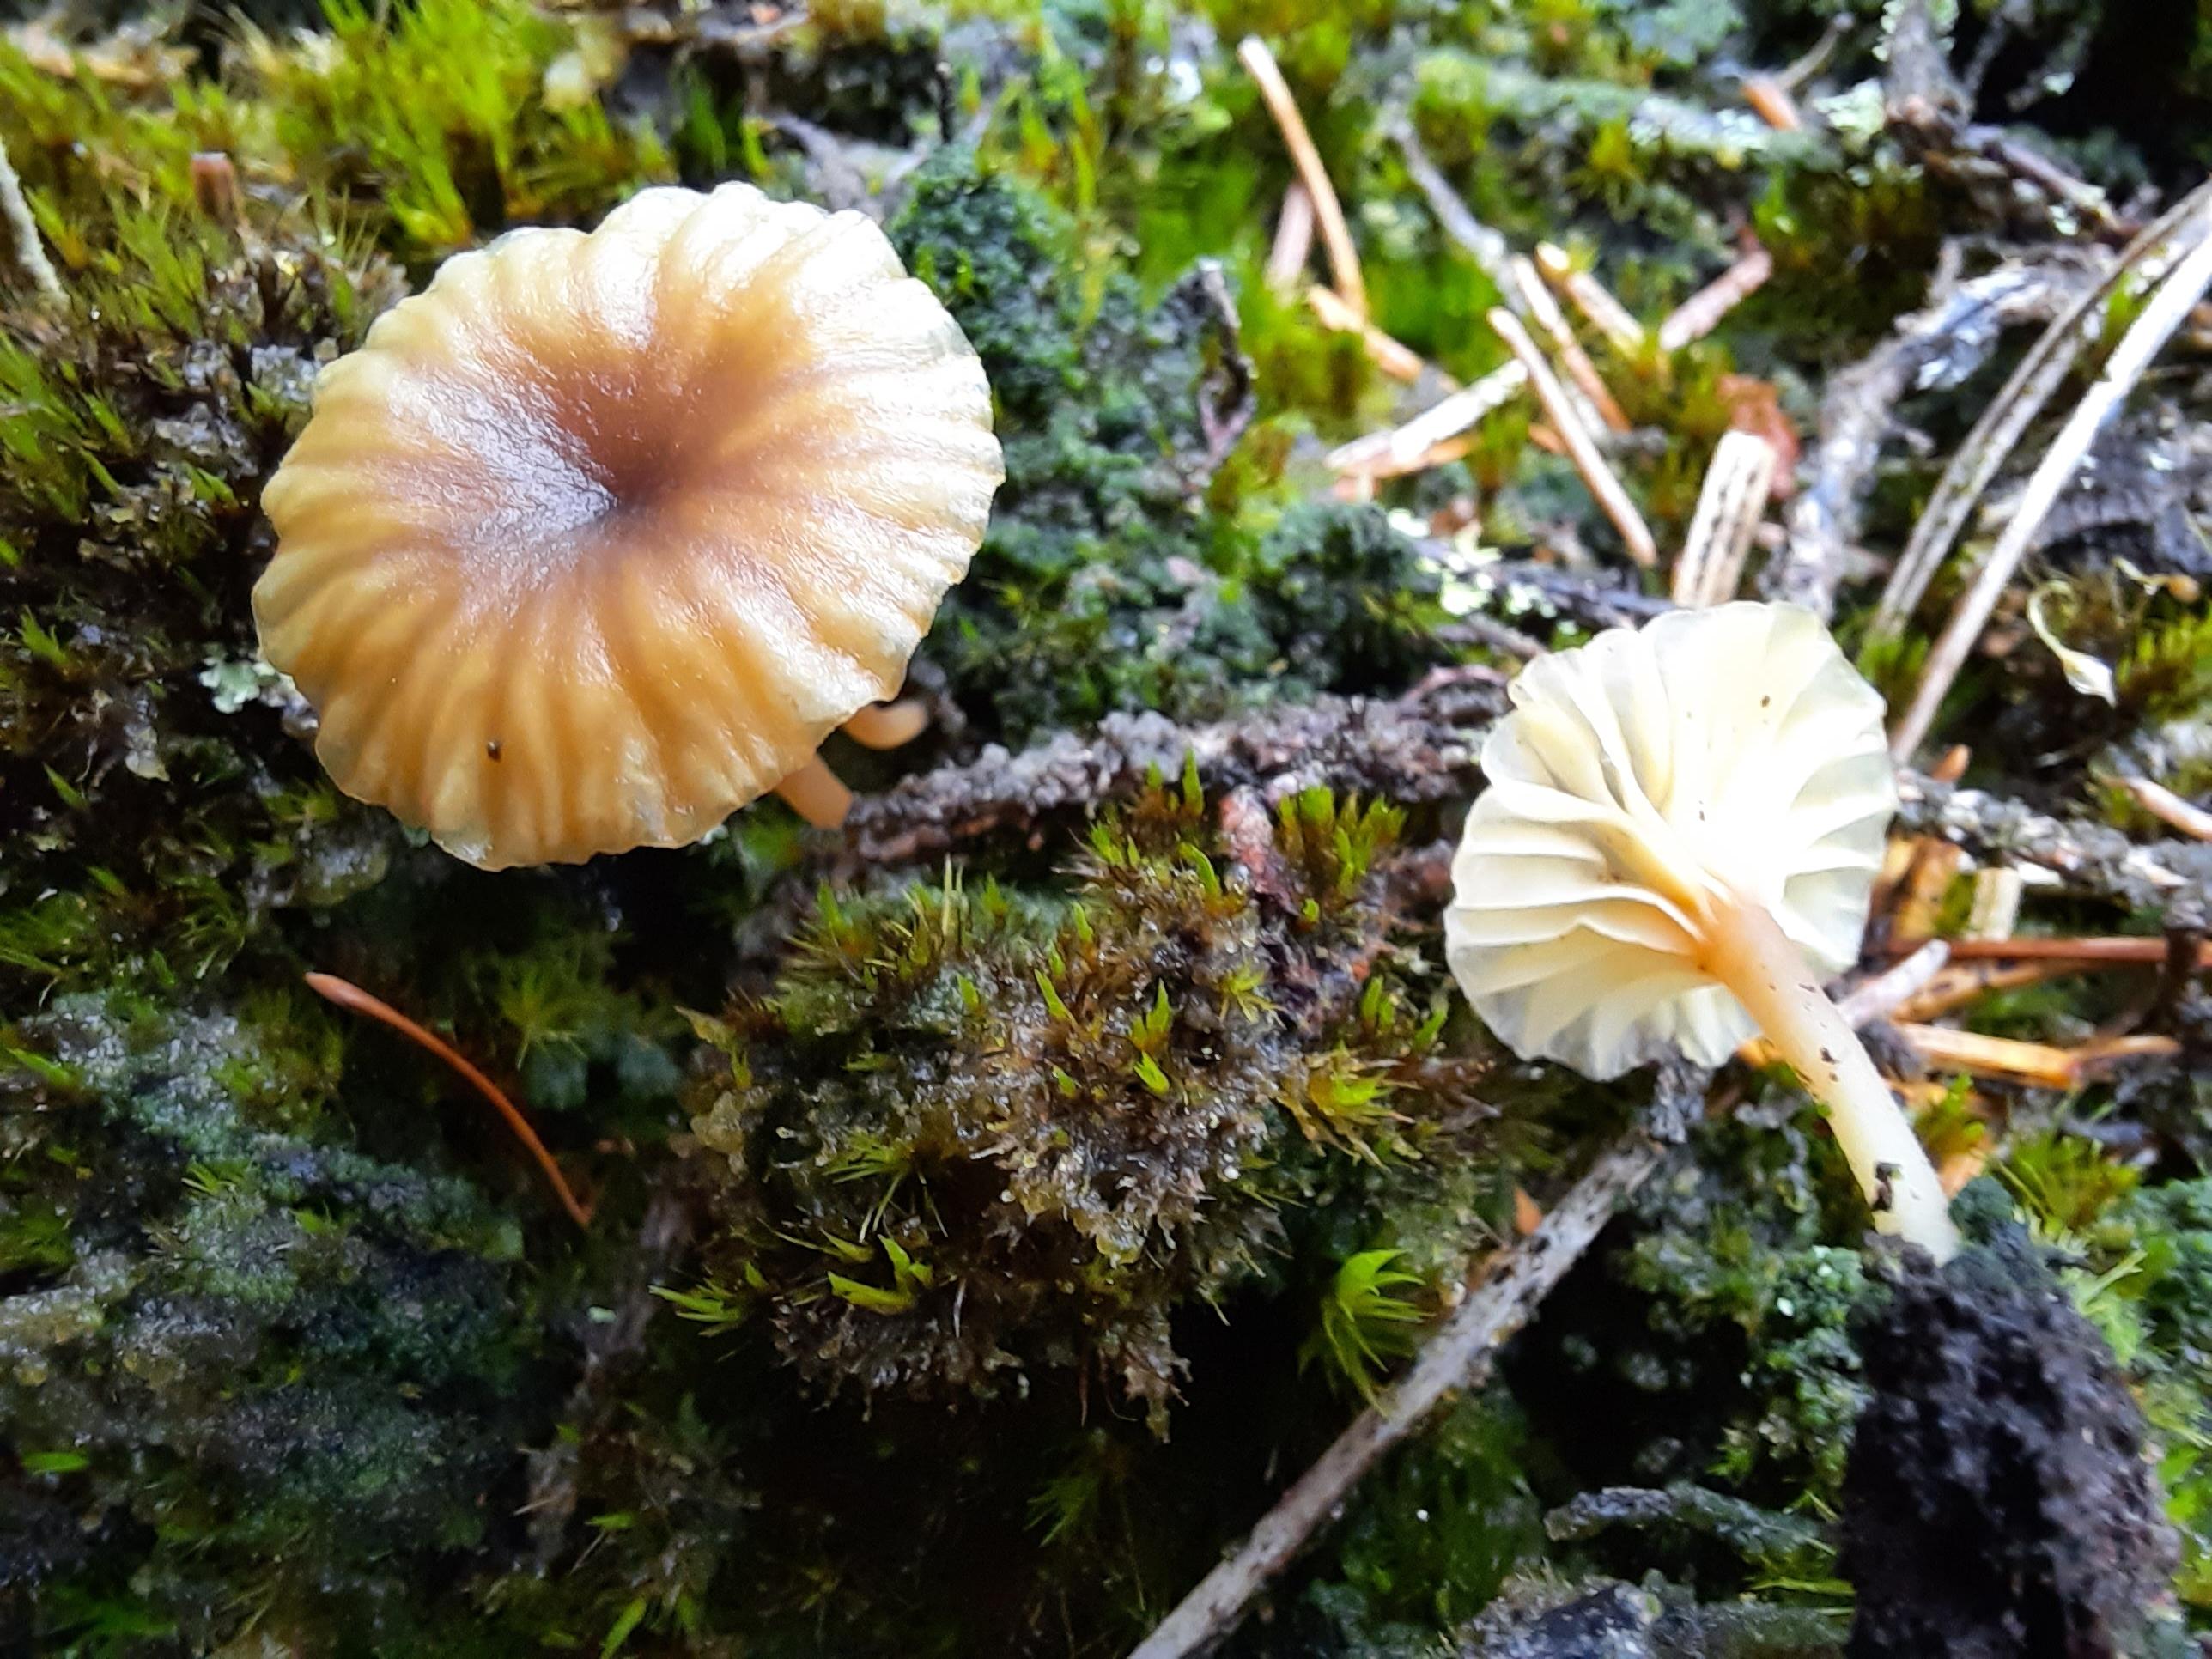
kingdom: Fungi
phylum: Basidiomycota
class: Agaricomycetes
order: Agaricales
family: Hygrophoraceae
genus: Lichenomphalia
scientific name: Lichenomphalia umbellifera
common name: tørve-lavhat
